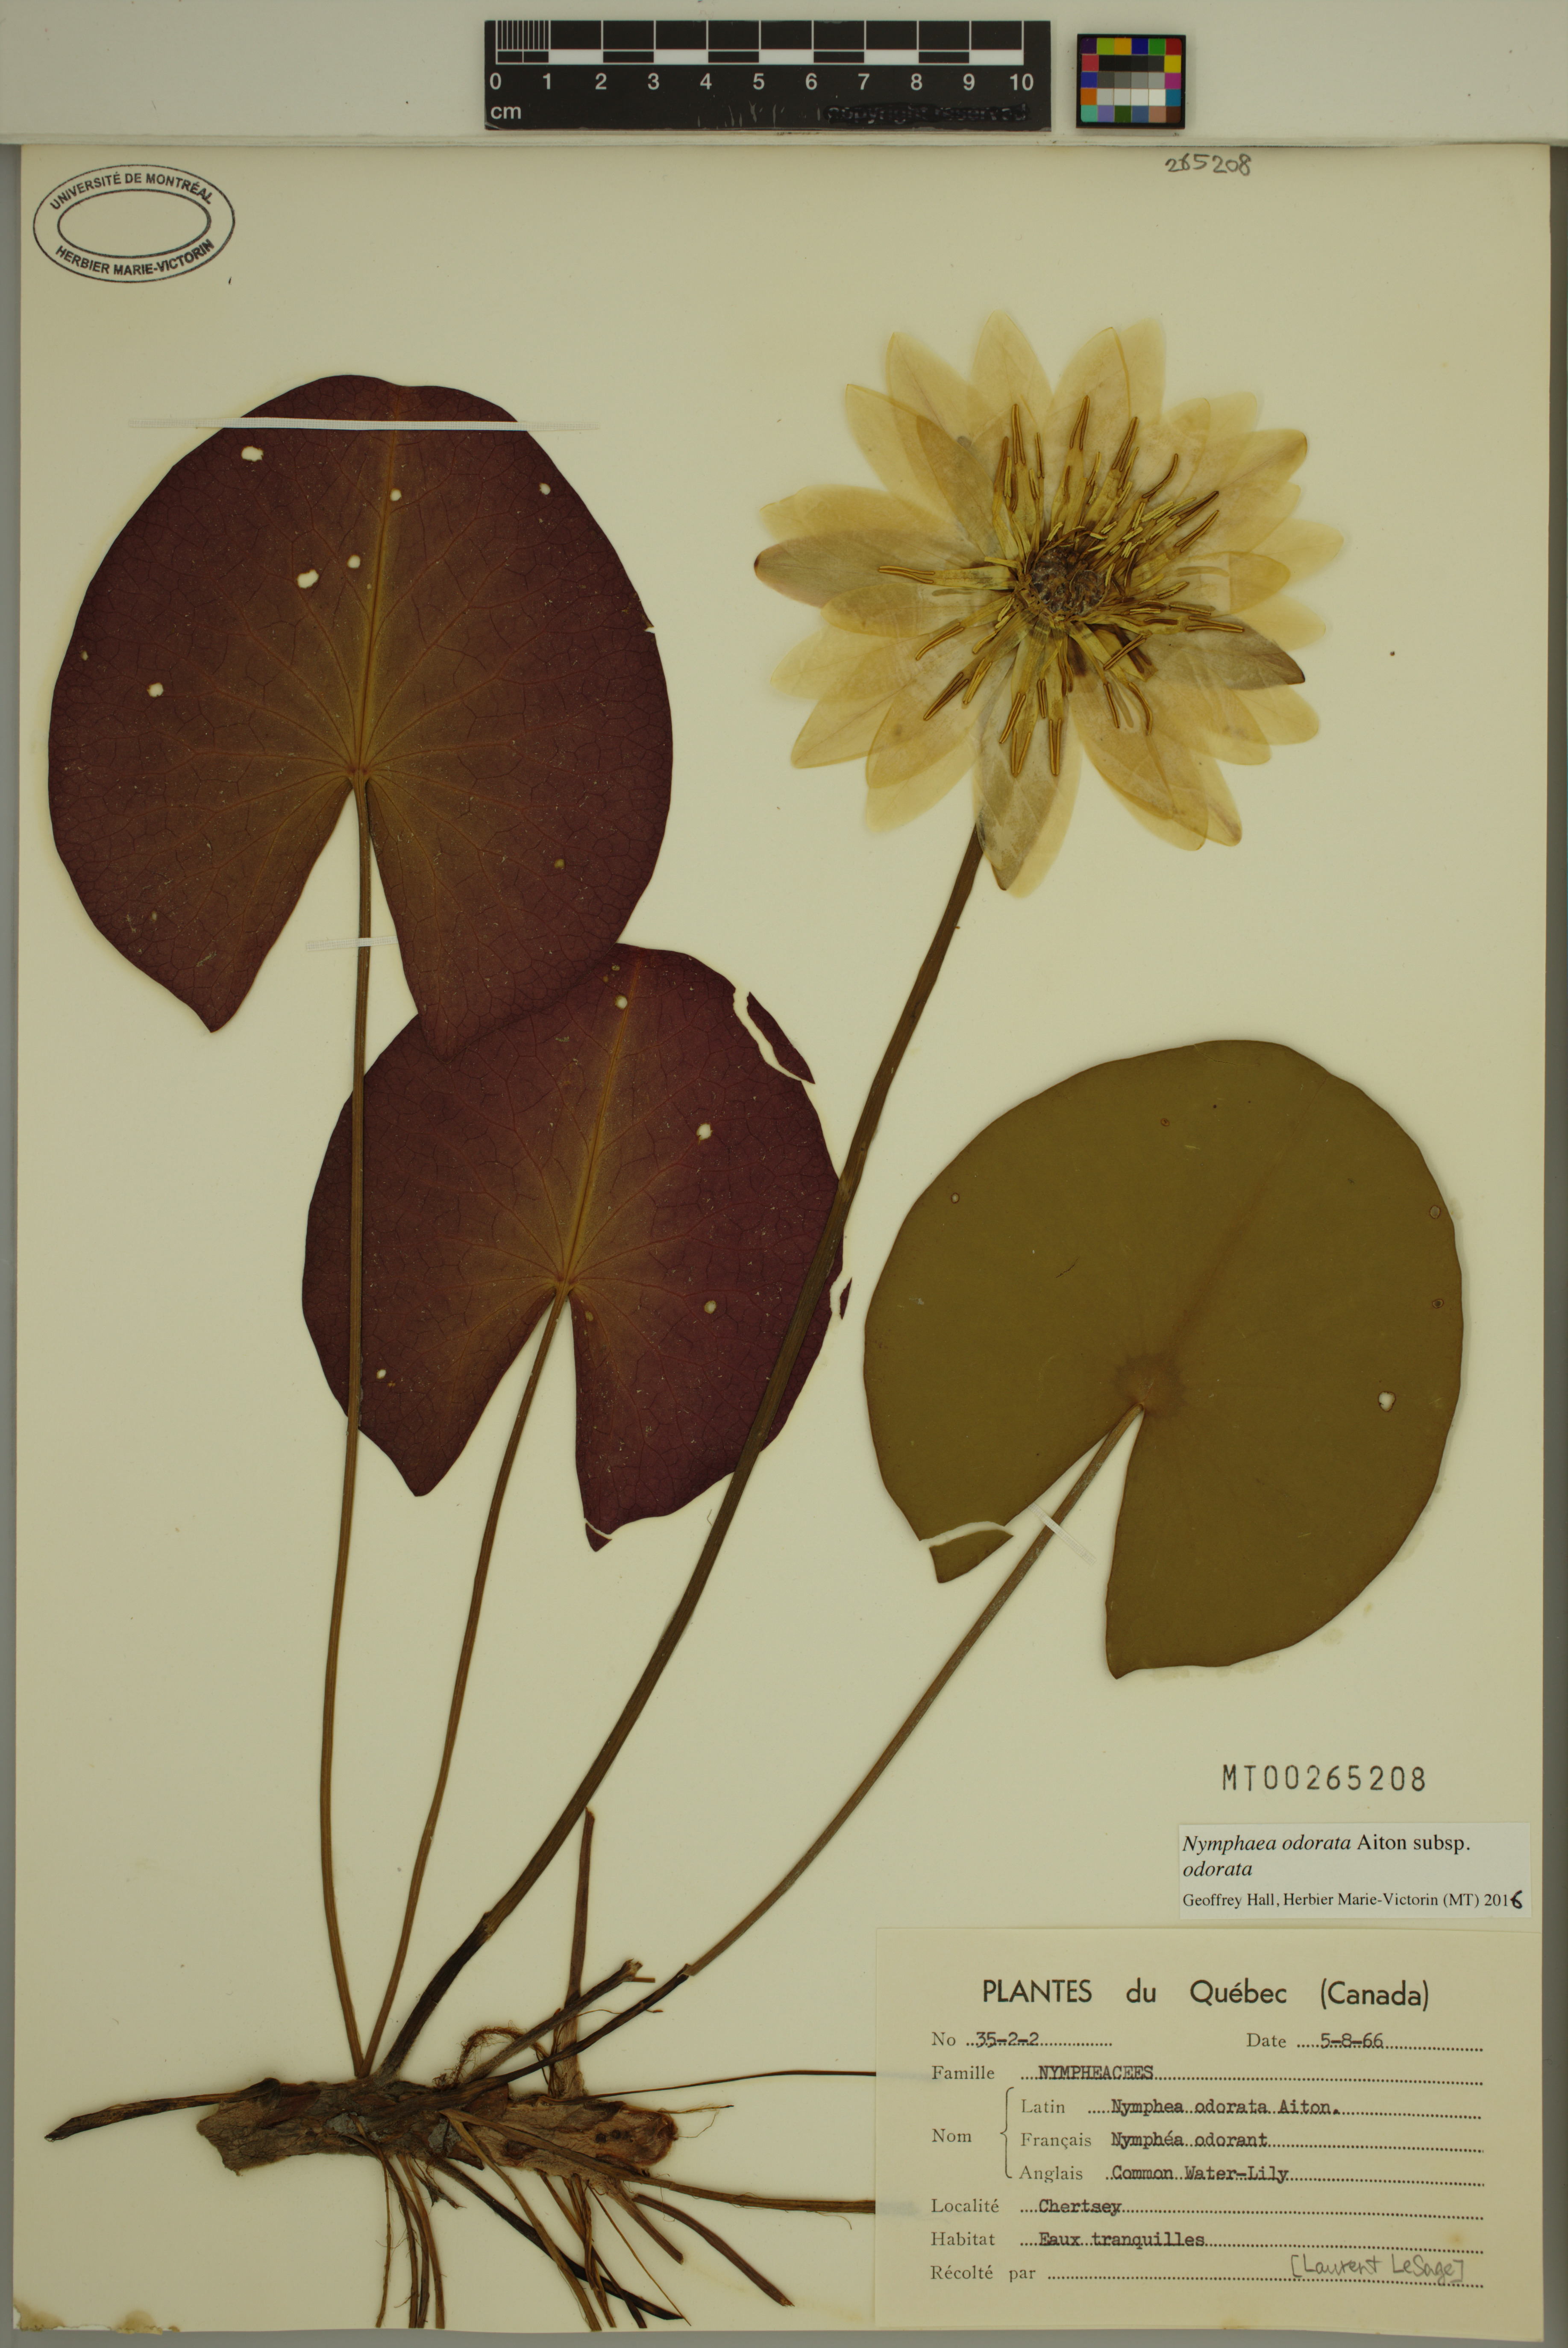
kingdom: Plantae
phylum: Tracheophyta
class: Magnoliopsida
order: Nymphaeales
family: Nymphaeaceae
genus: Nymphaea
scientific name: Nymphaea odorata
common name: Fragrant water-lily
